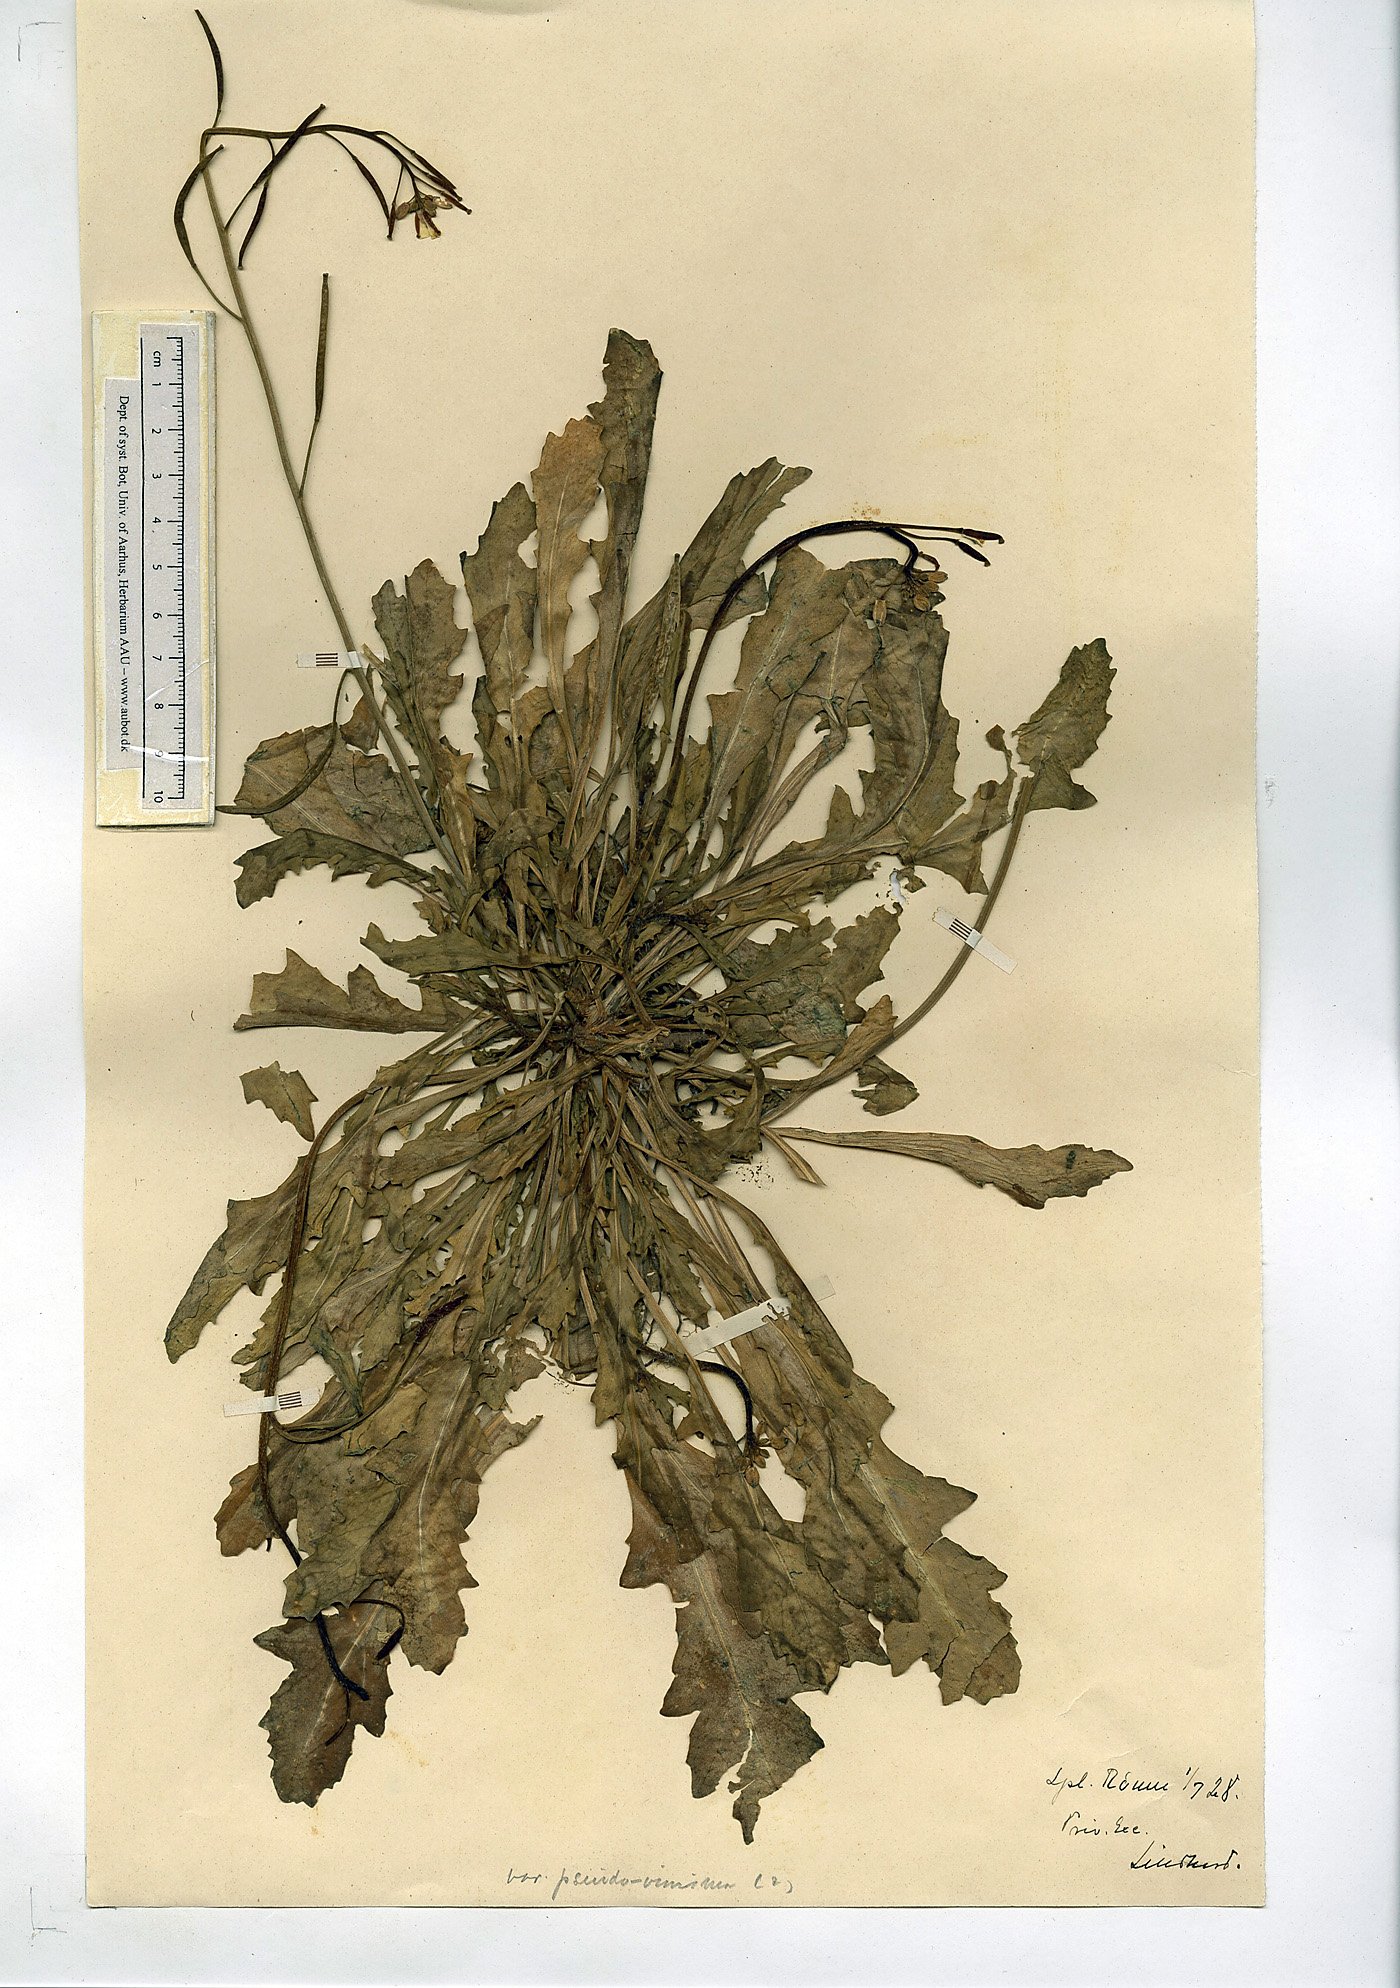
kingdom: Plantae
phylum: Tracheophyta
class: Magnoliopsida
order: Brassicales
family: Brassicaceae
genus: Diplotaxis
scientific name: Diplotaxis muralis
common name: Annual wall-rocket
